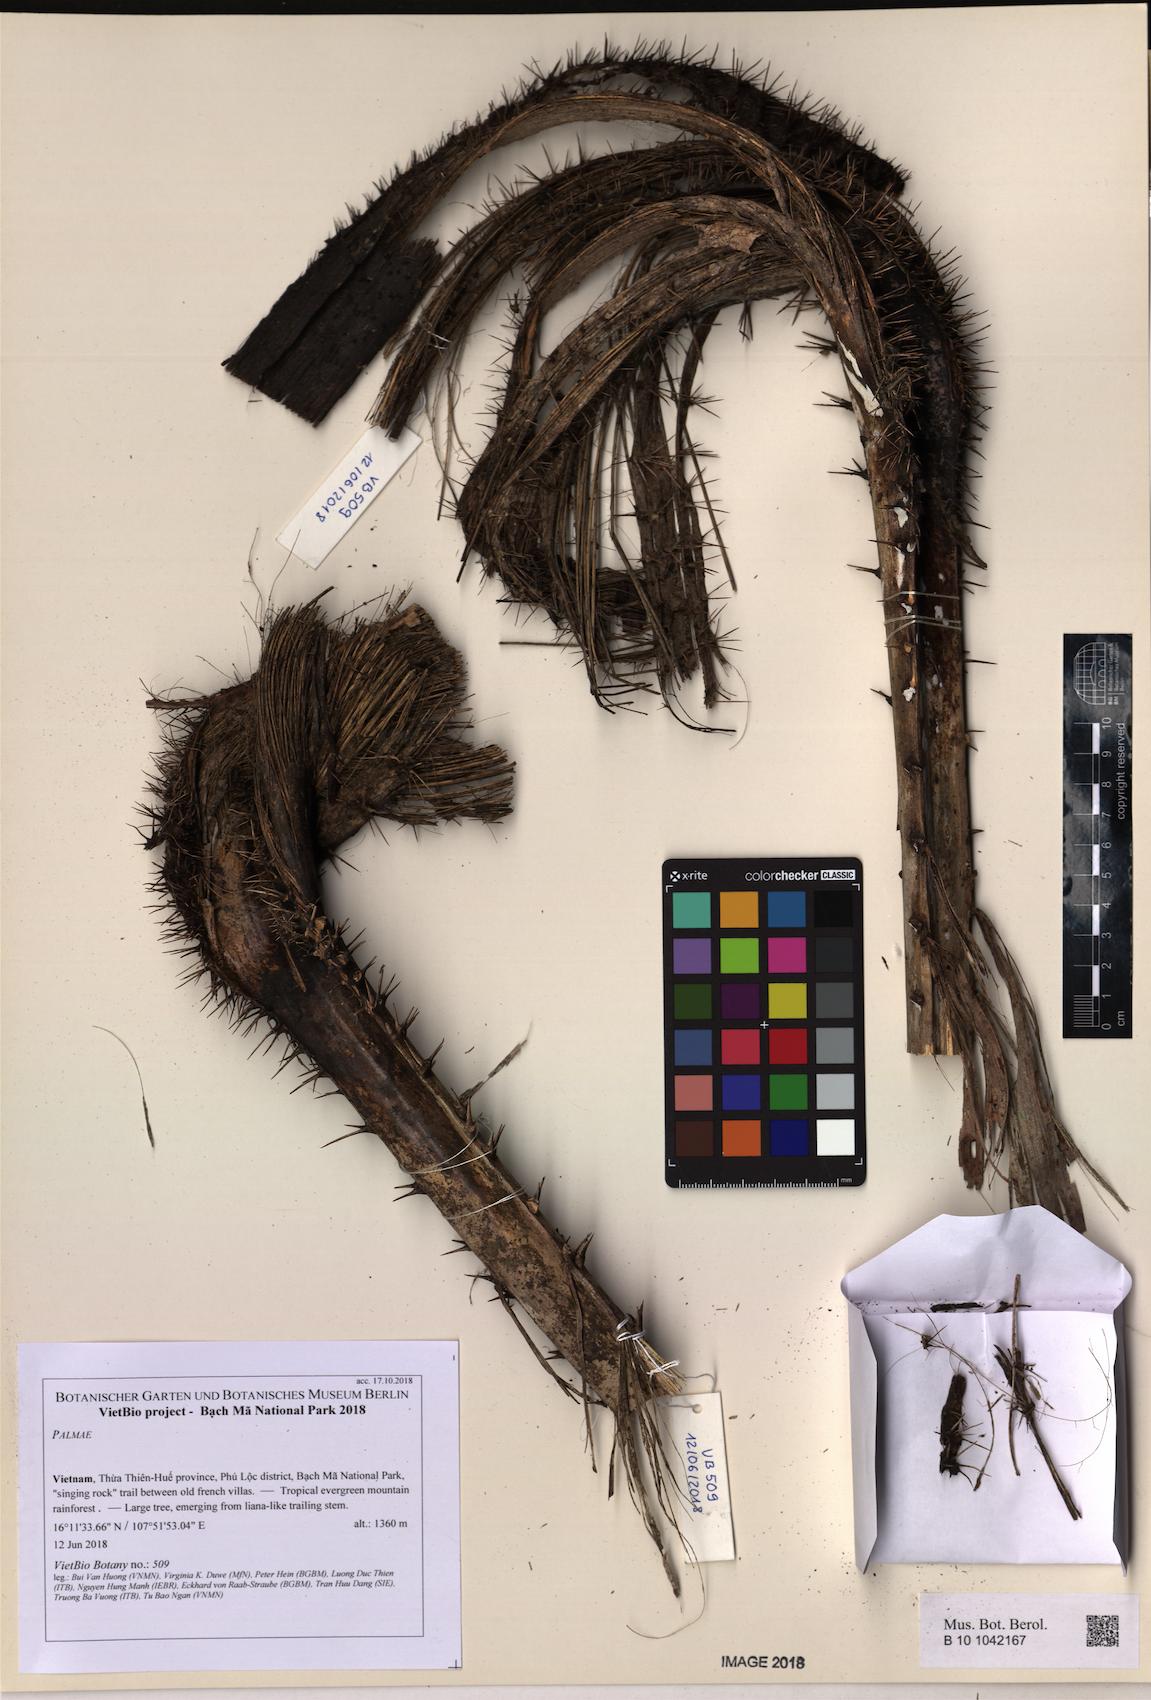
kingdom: Plantae
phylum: Tracheophyta
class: Liliopsida
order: Arecales
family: Arecaceae
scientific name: Arecaceae
